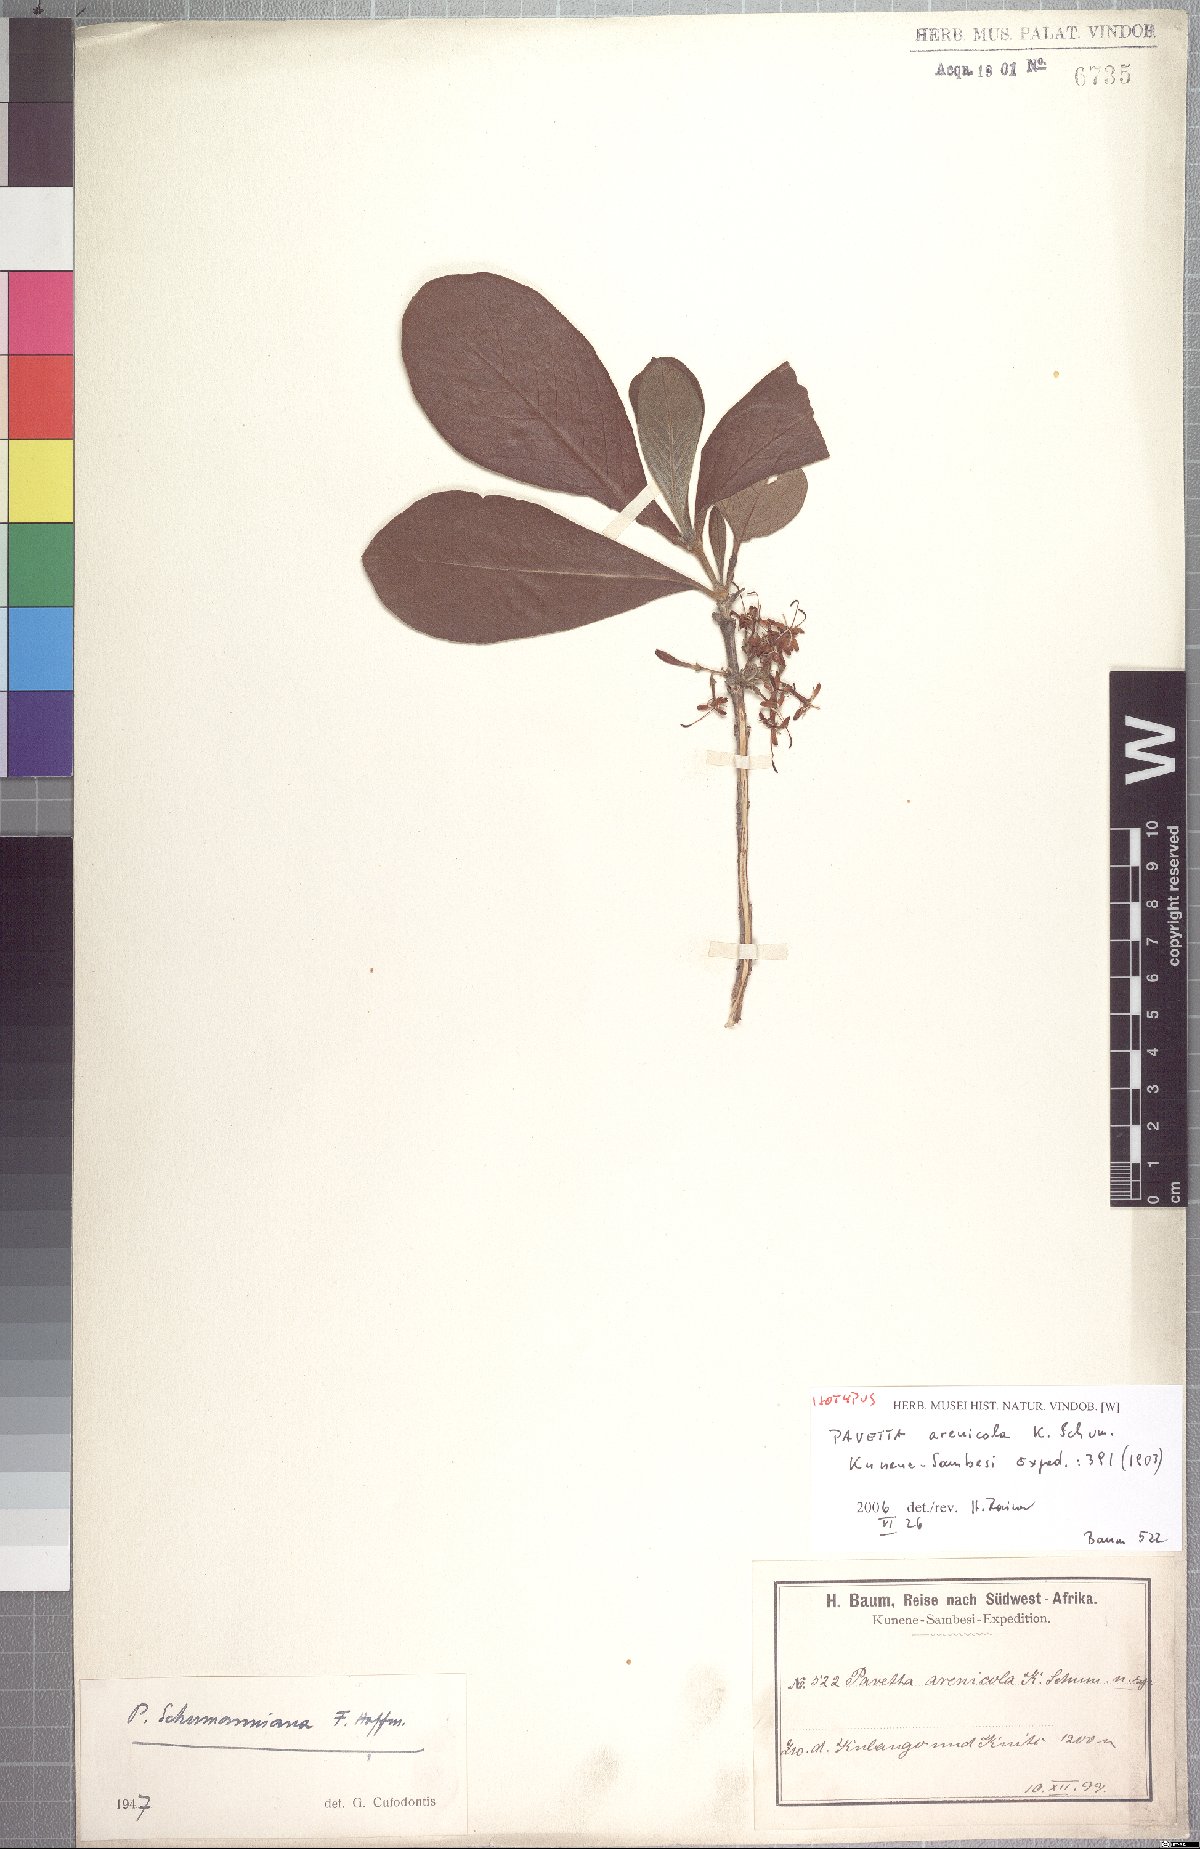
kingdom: Plantae
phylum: Tracheophyta
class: Magnoliopsida
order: Gentianales
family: Rubiaceae
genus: Pavetta
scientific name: Pavetta arenicola
